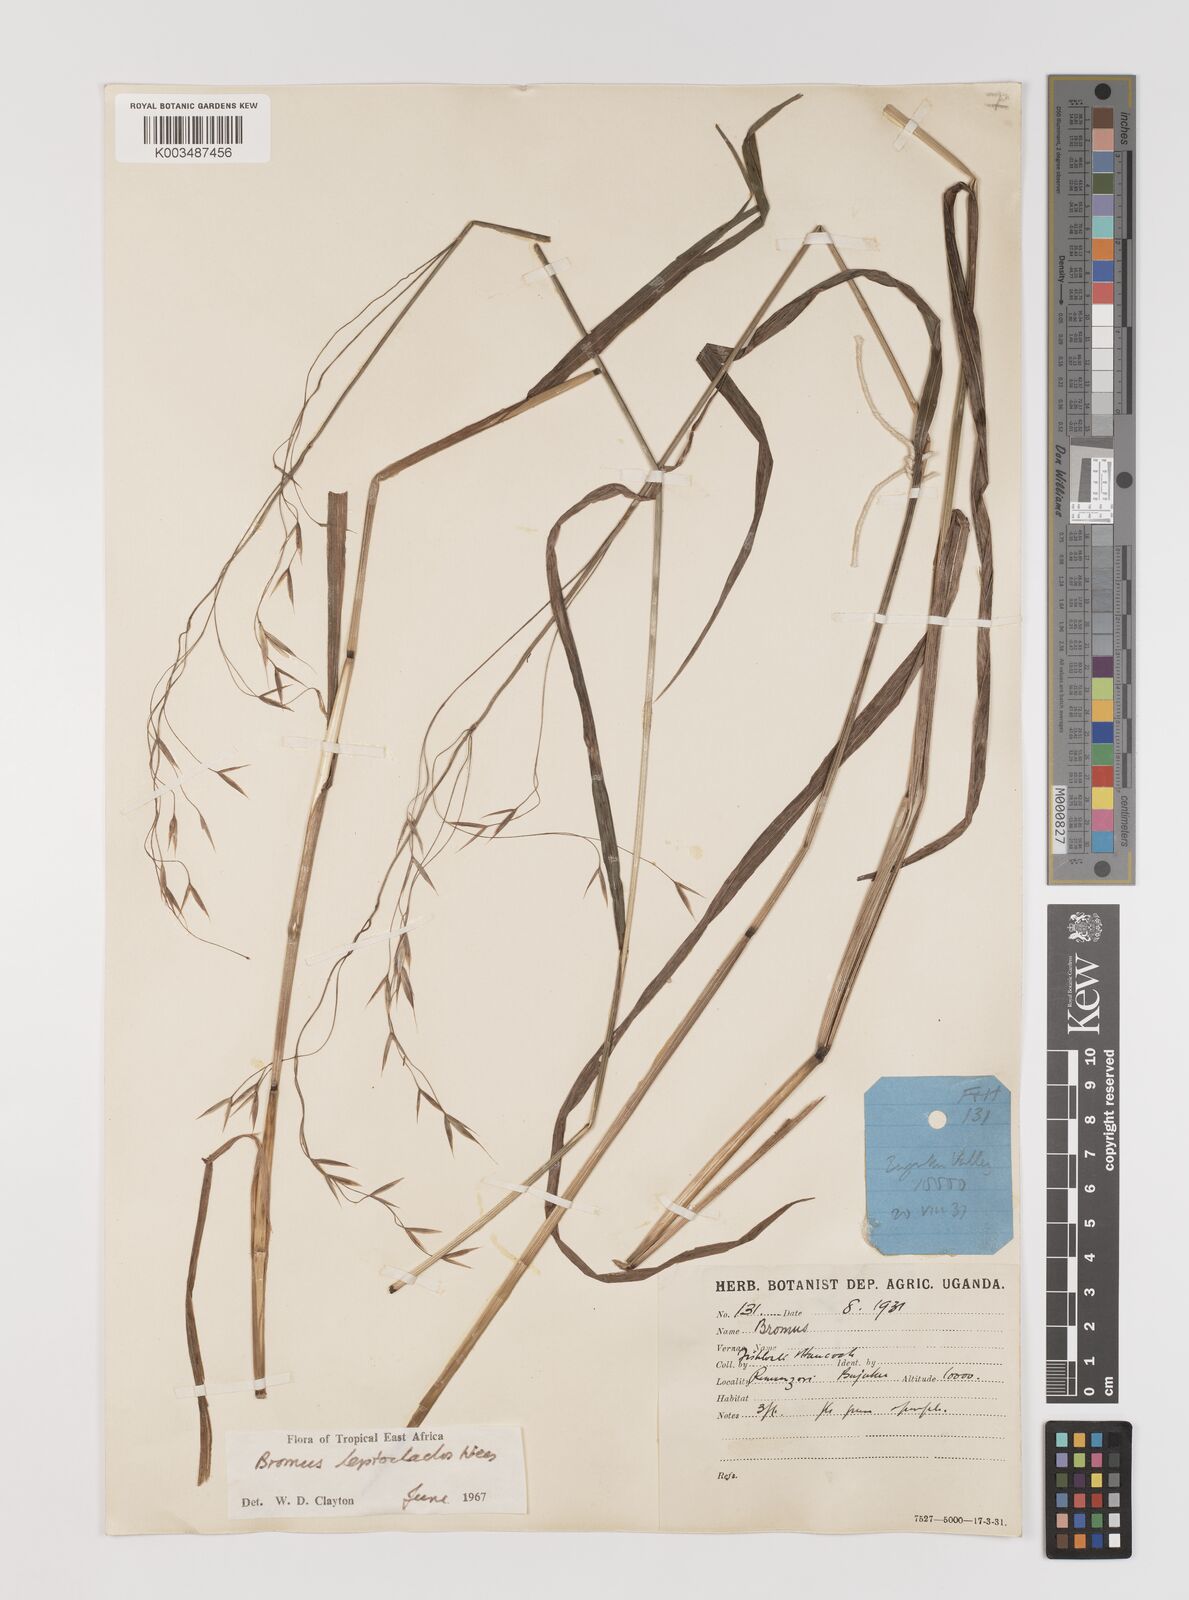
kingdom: Plantae
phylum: Tracheophyta
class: Liliopsida
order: Poales
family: Poaceae
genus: Bromus
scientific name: Bromus leptoclados
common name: Mountain bromegrass
